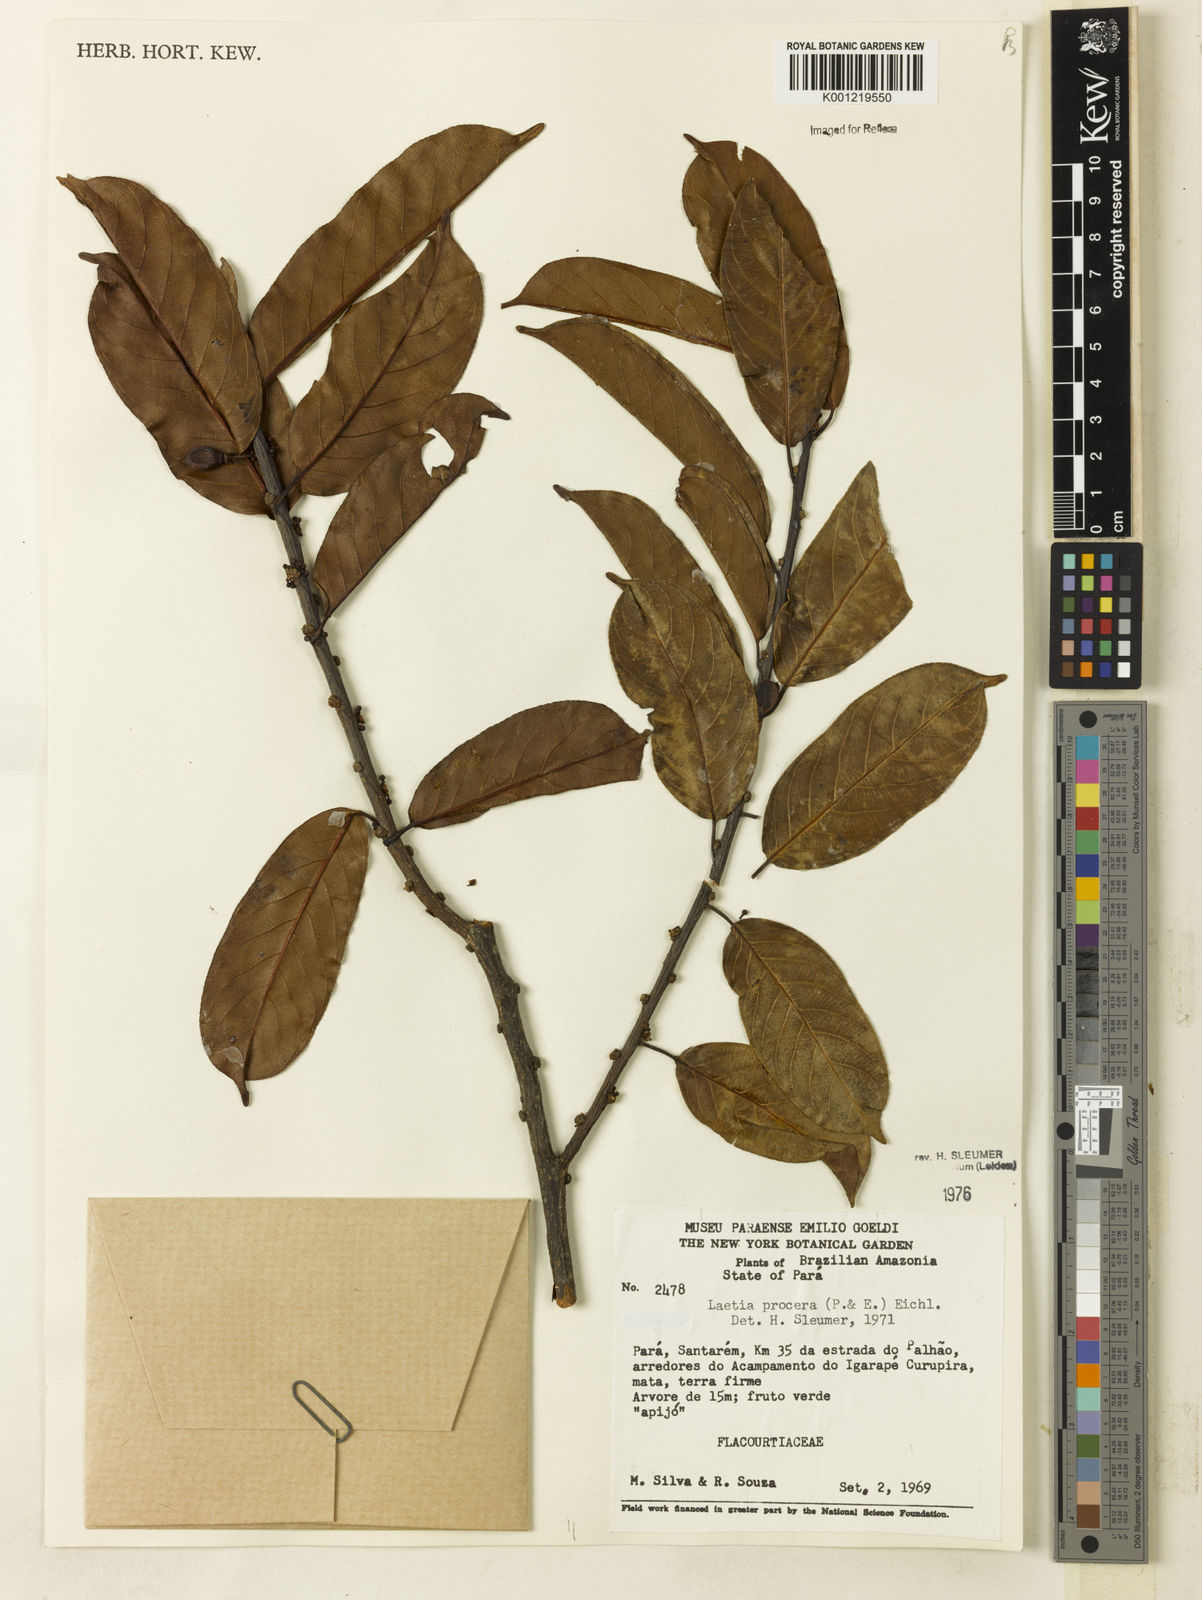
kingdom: Plantae
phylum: Tracheophyta
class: Magnoliopsida
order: Malpighiales
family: Salicaceae
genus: Casearia
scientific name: Casearia bicolor
